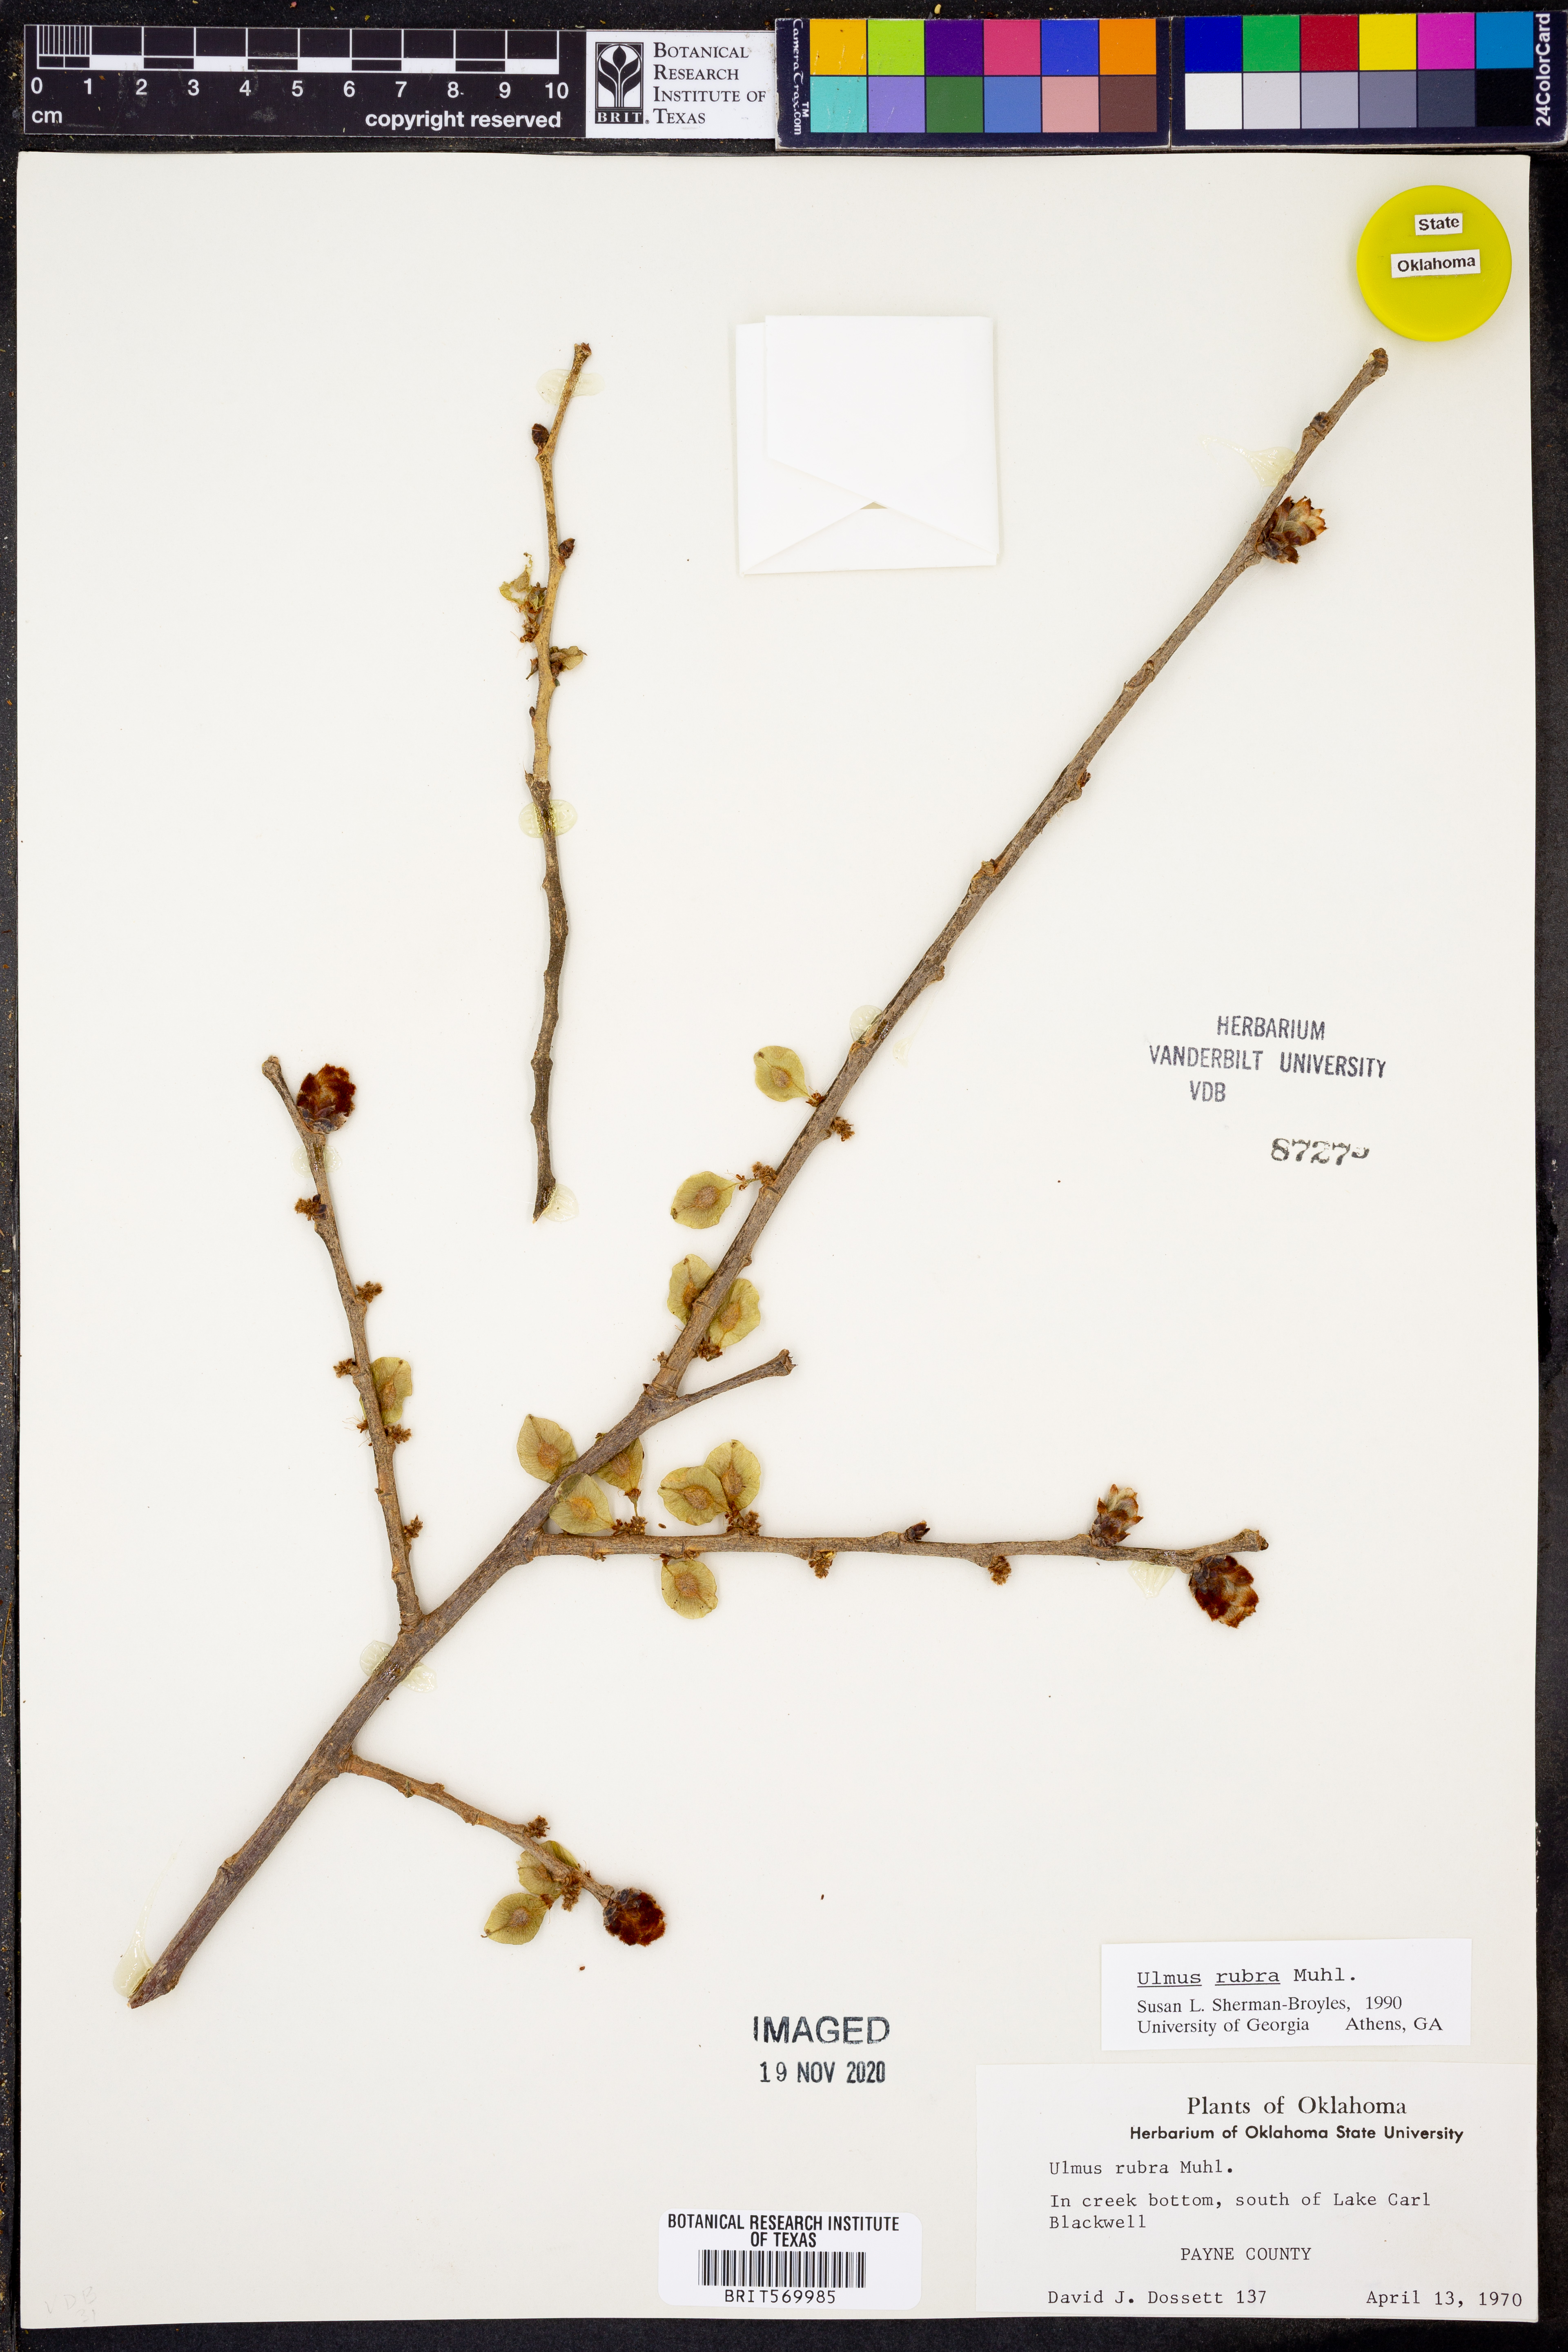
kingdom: Plantae
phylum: Tracheophyta
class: Magnoliopsida
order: Rosales
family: Ulmaceae
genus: Ulmus
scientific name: Ulmus rubra
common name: Slippery elm
